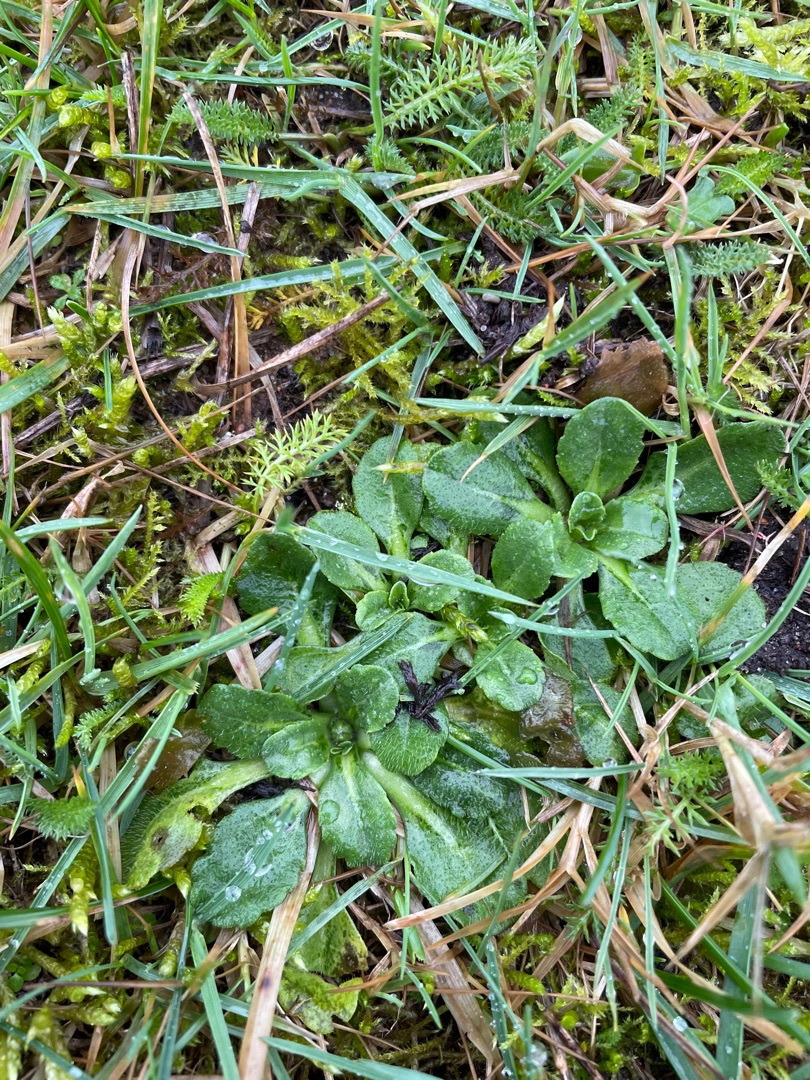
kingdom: Plantae
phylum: Tracheophyta
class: Magnoliopsida
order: Asterales
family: Asteraceae
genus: Bellis
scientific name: Bellis perennis
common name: Tusindfryd
